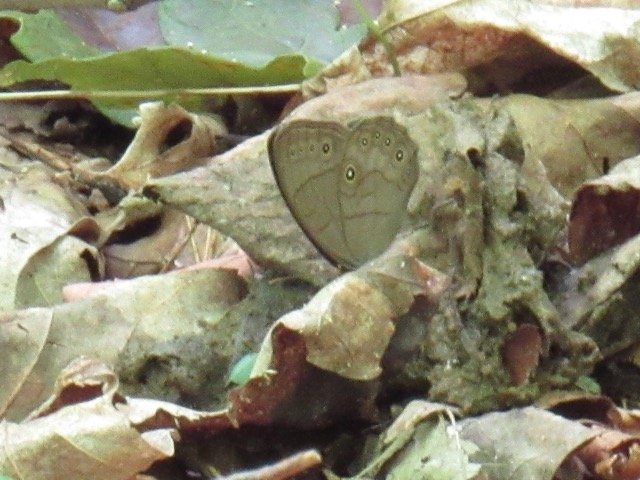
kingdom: Animalia
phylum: Arthropoda
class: Insecta
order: Lepidoptera
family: Nymphalidae
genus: Lethe
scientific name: Lethe eurydice
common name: Appalachian Eyed Brown
